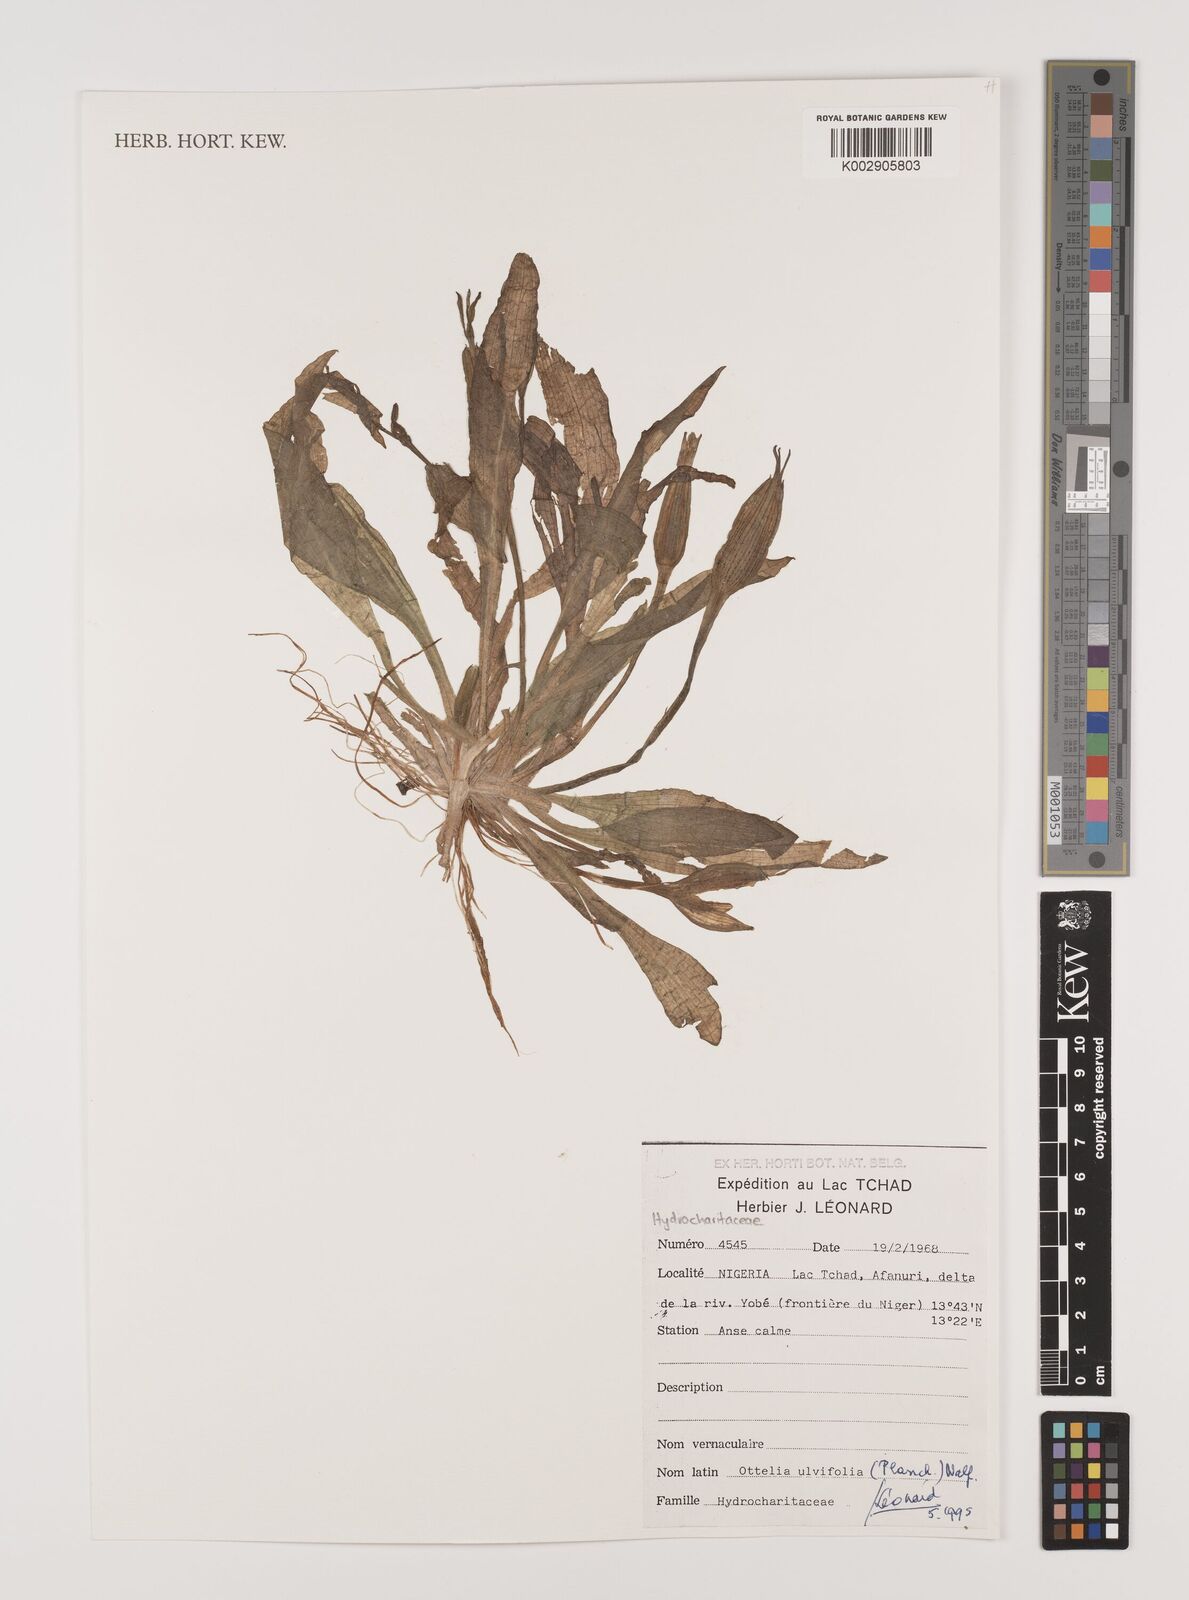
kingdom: Plantae
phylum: Tracheophyta
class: Liliopsida
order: Alismatales
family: Hydrocharitaceae
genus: Ottelia
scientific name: Ottelia ulvifolia
